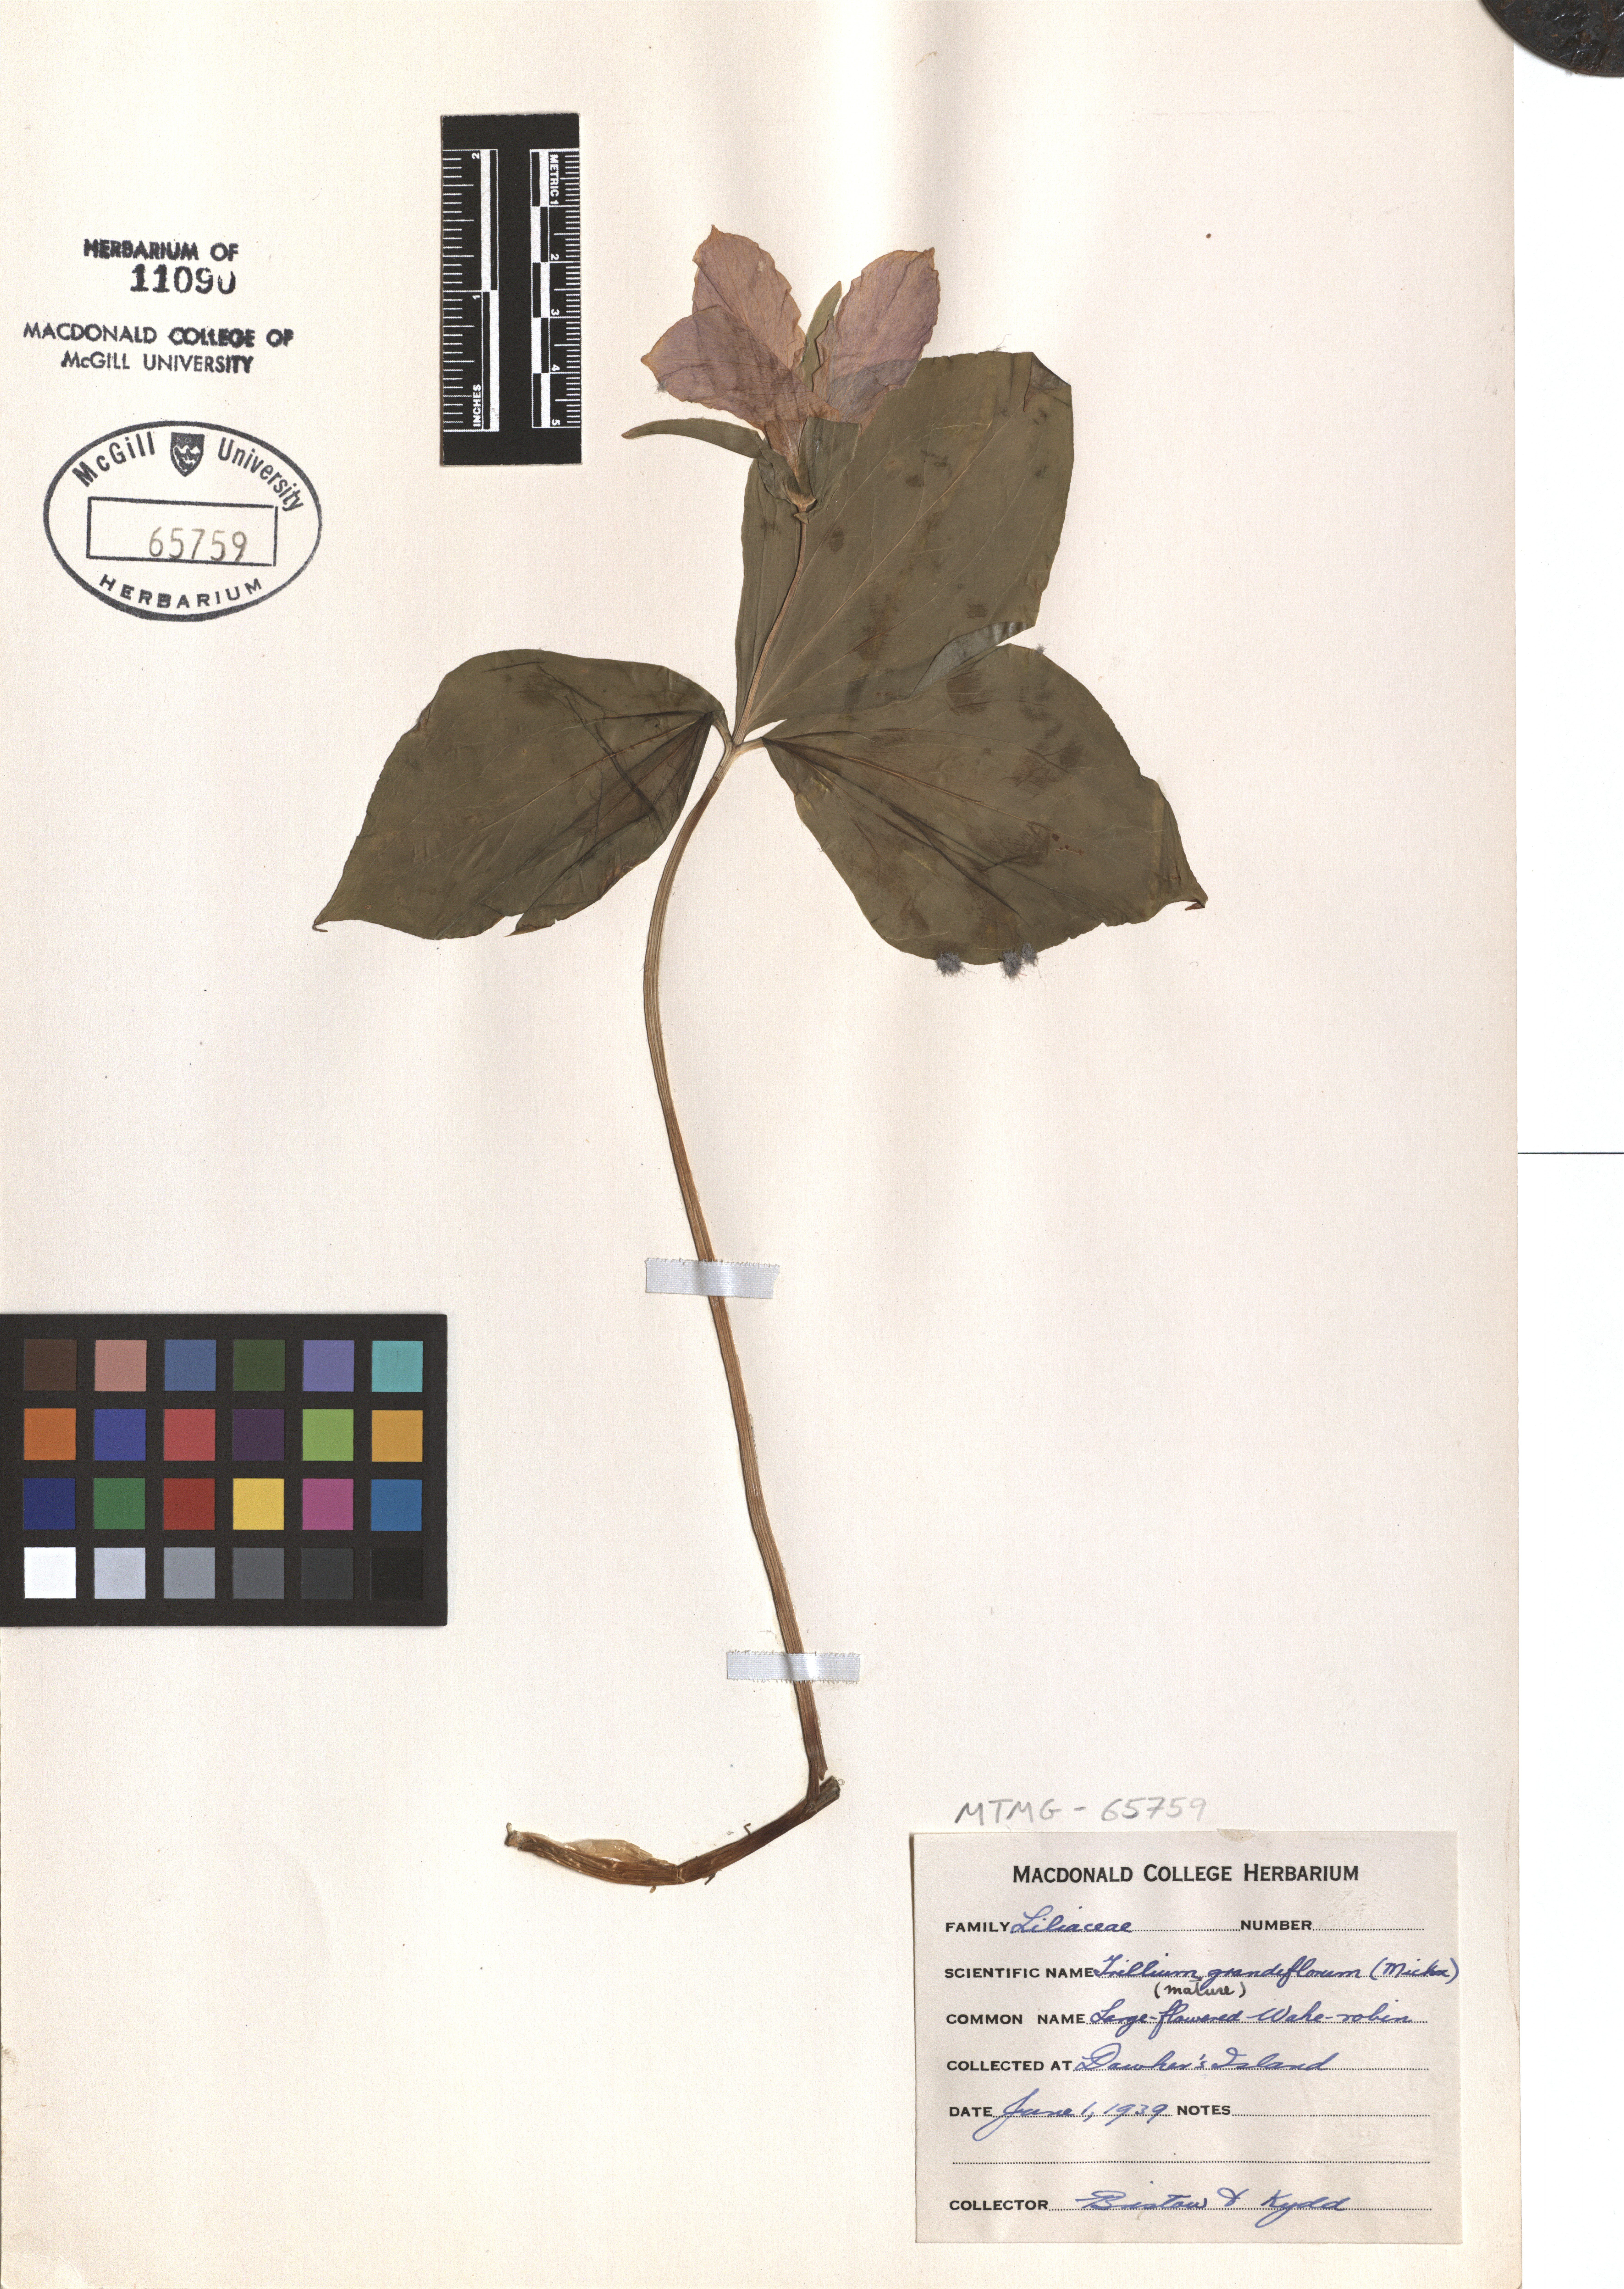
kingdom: Plantae
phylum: Tracheophyta
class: Liliopsida
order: Liliales
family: Melanthiaceae
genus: Trillium
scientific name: Trillium grandiflorum
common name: Great white trillium
